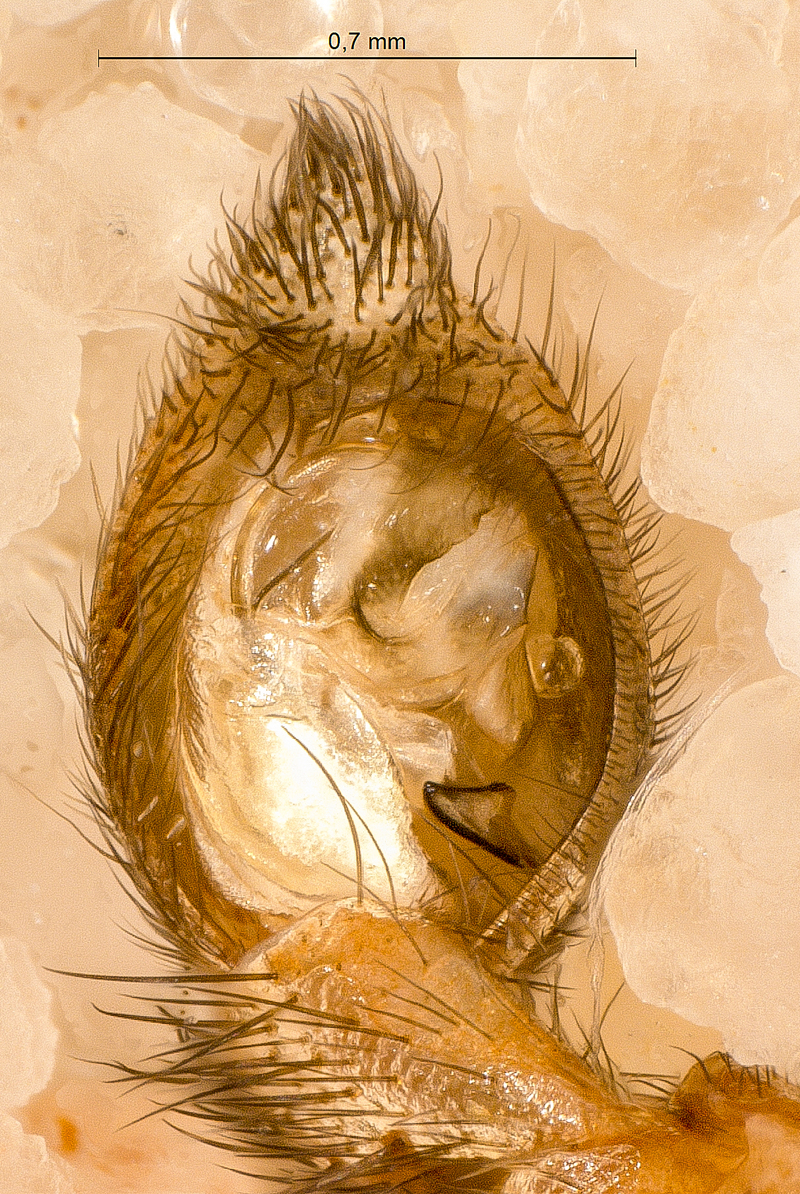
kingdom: Animalia
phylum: Arthropoda
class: Arachnida
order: Araneae
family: Lycosidae
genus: Alopecosa
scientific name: Alopecosa cuneata
